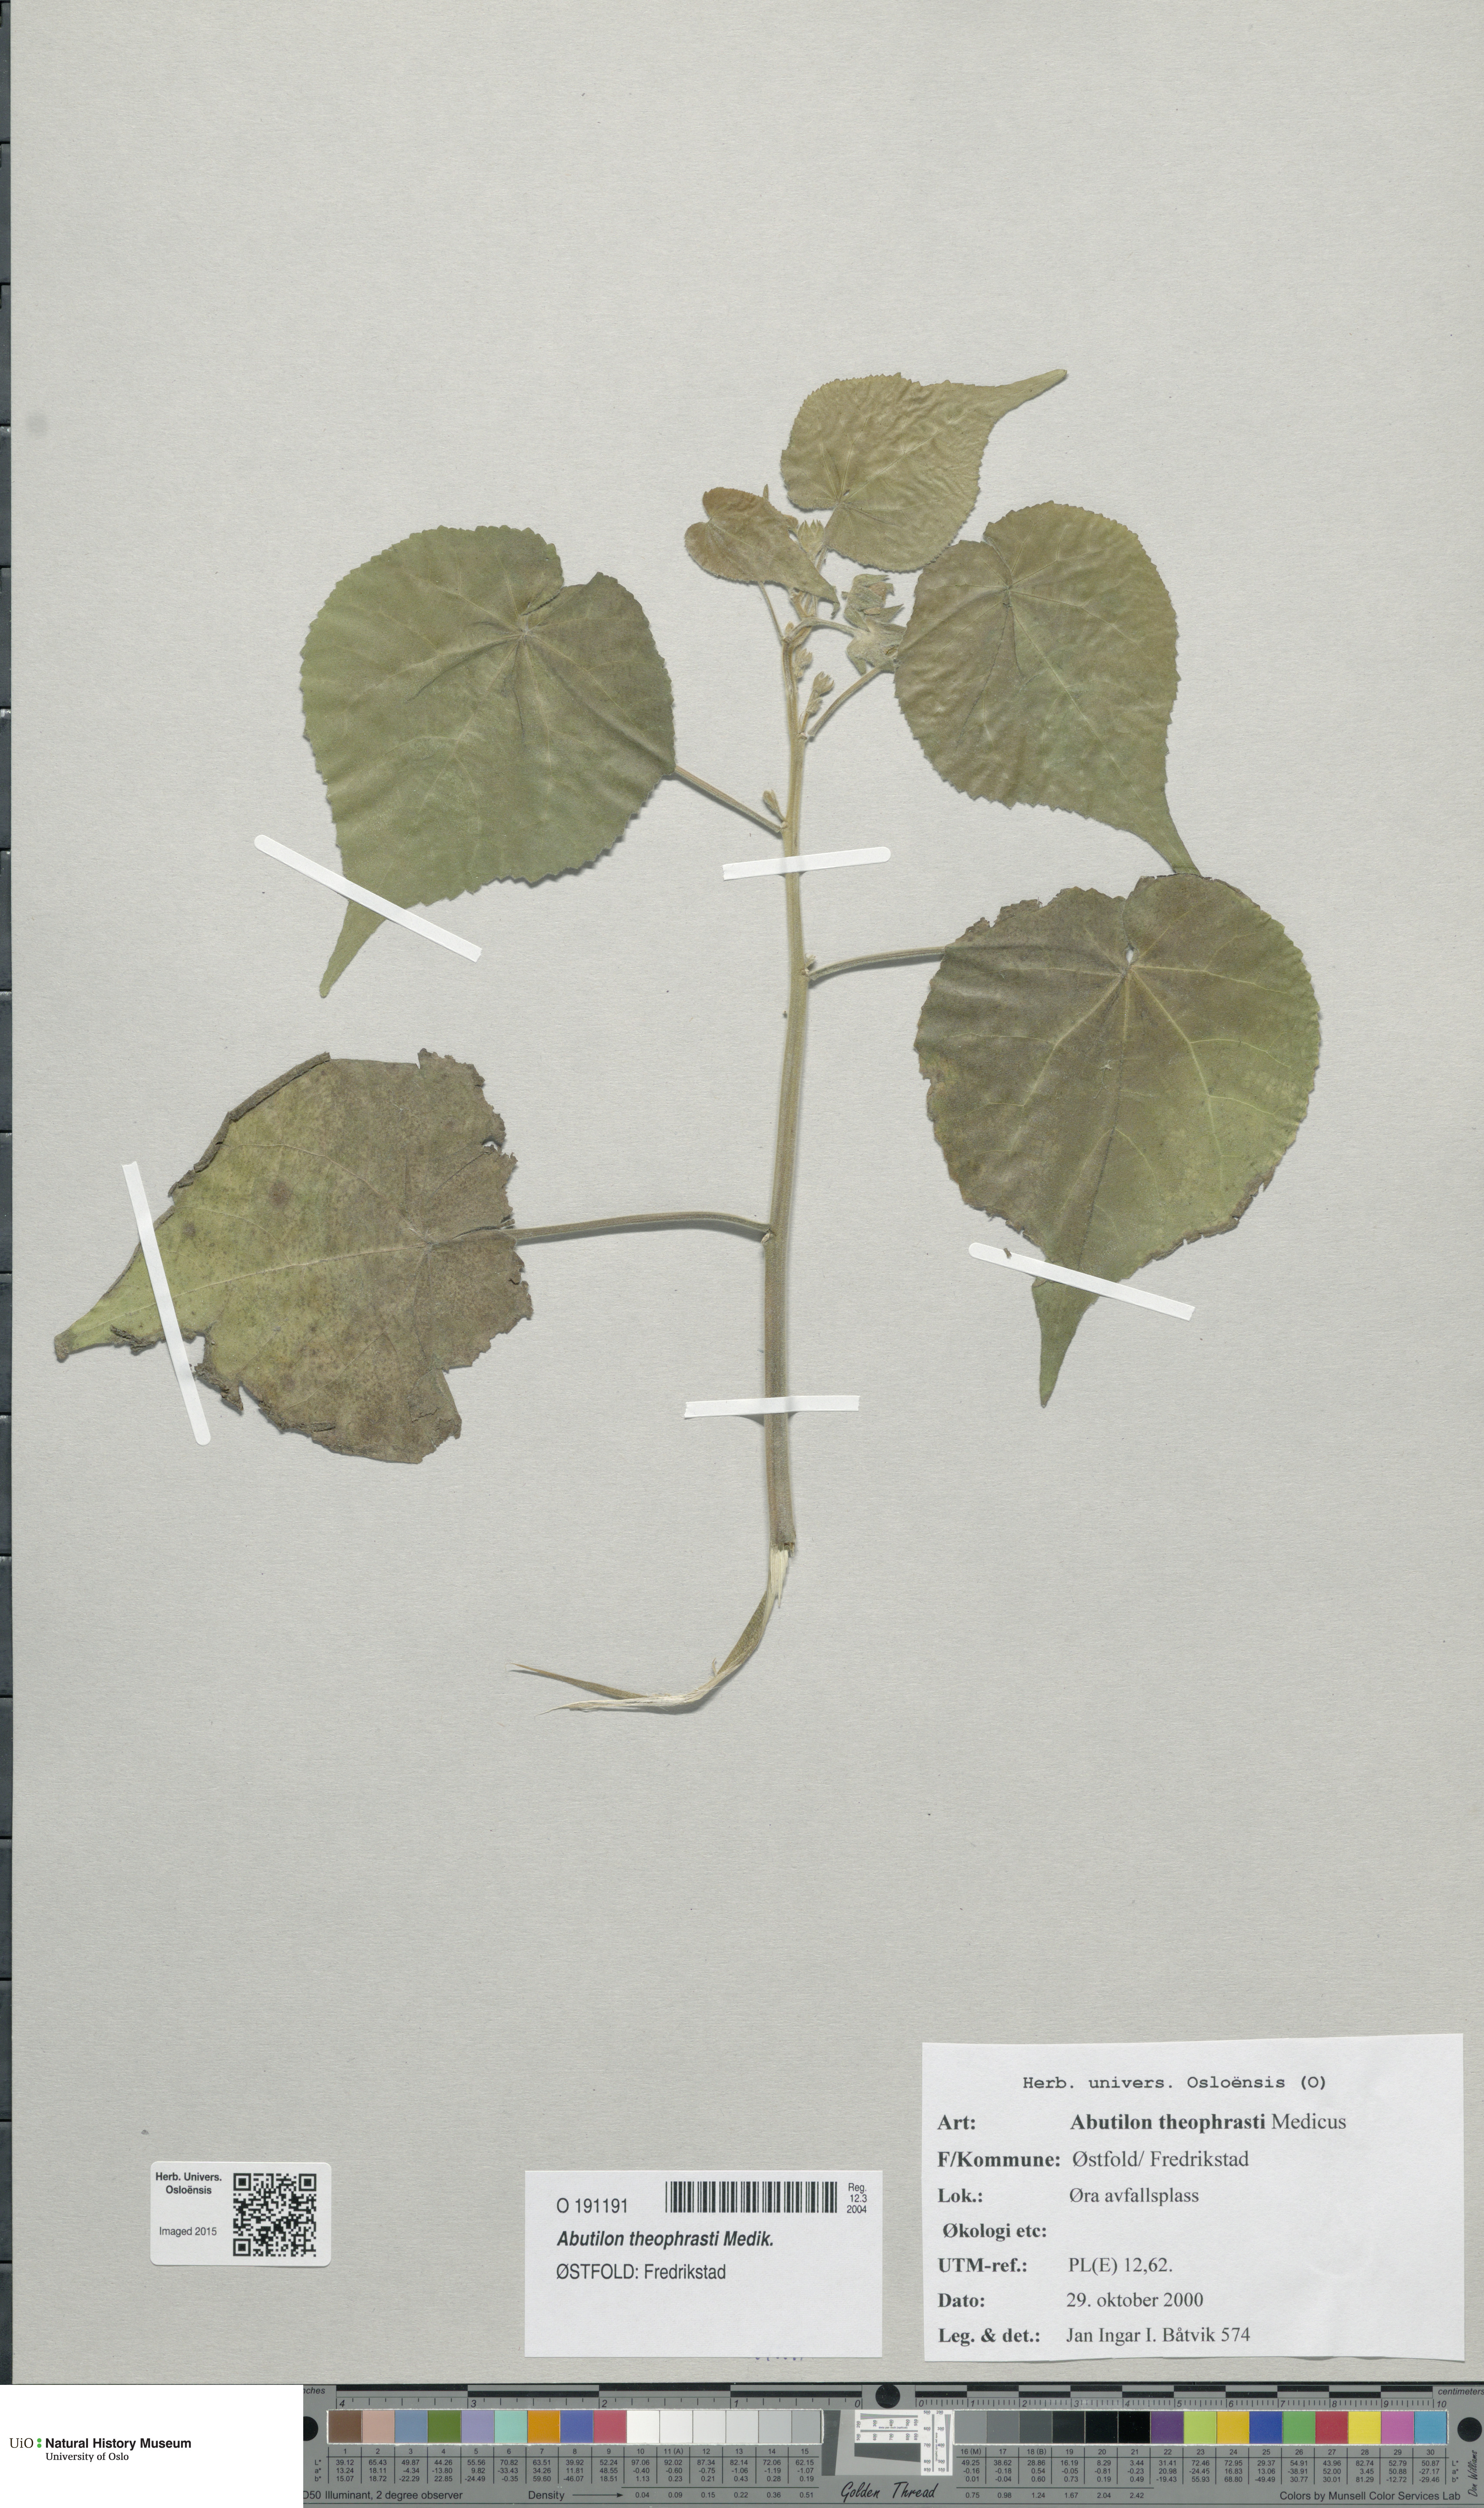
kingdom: Plantae
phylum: Tracheophyta
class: Magnoliopsida
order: Malvales
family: Malvaceae
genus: Abutilon
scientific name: Abutilon theophrasti
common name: Velvetleaf
